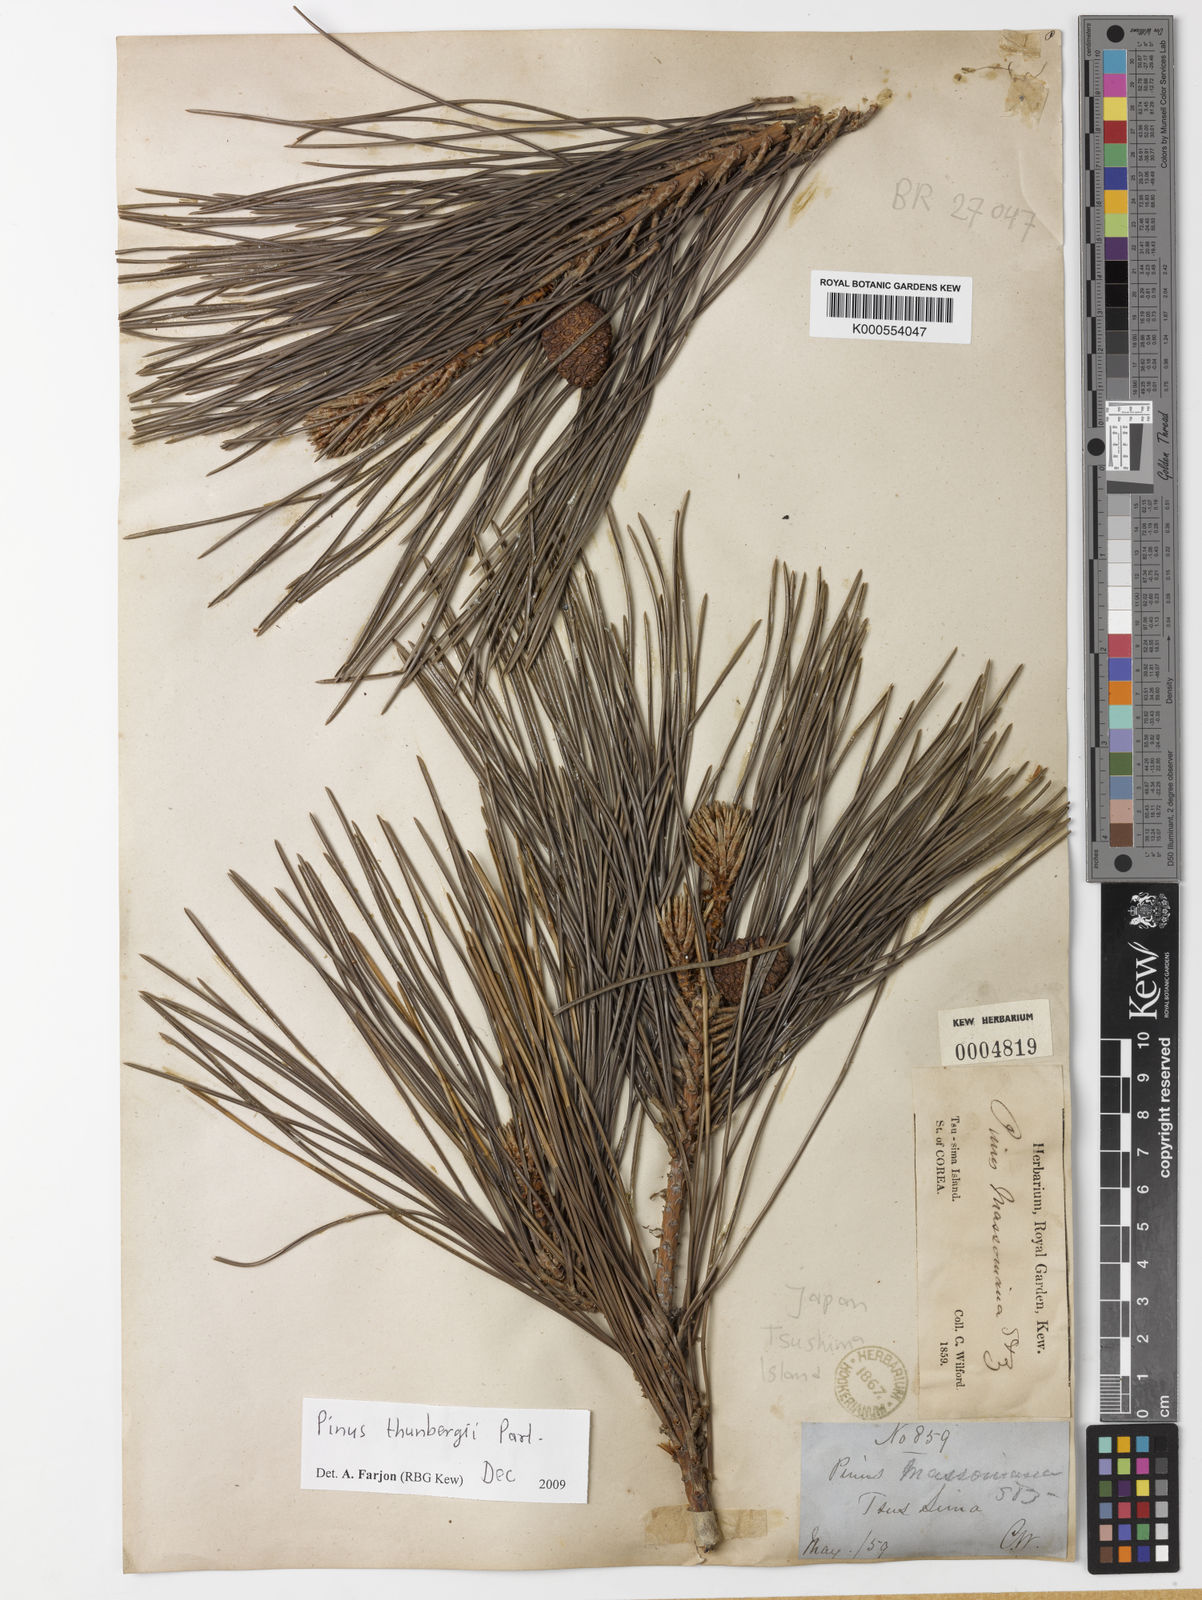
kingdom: Plantae
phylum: Tracheophyta
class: Pinopsida
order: Pinales
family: Pinaceae
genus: Pinus
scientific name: Pinus thunbergii
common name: Japanese black pine
